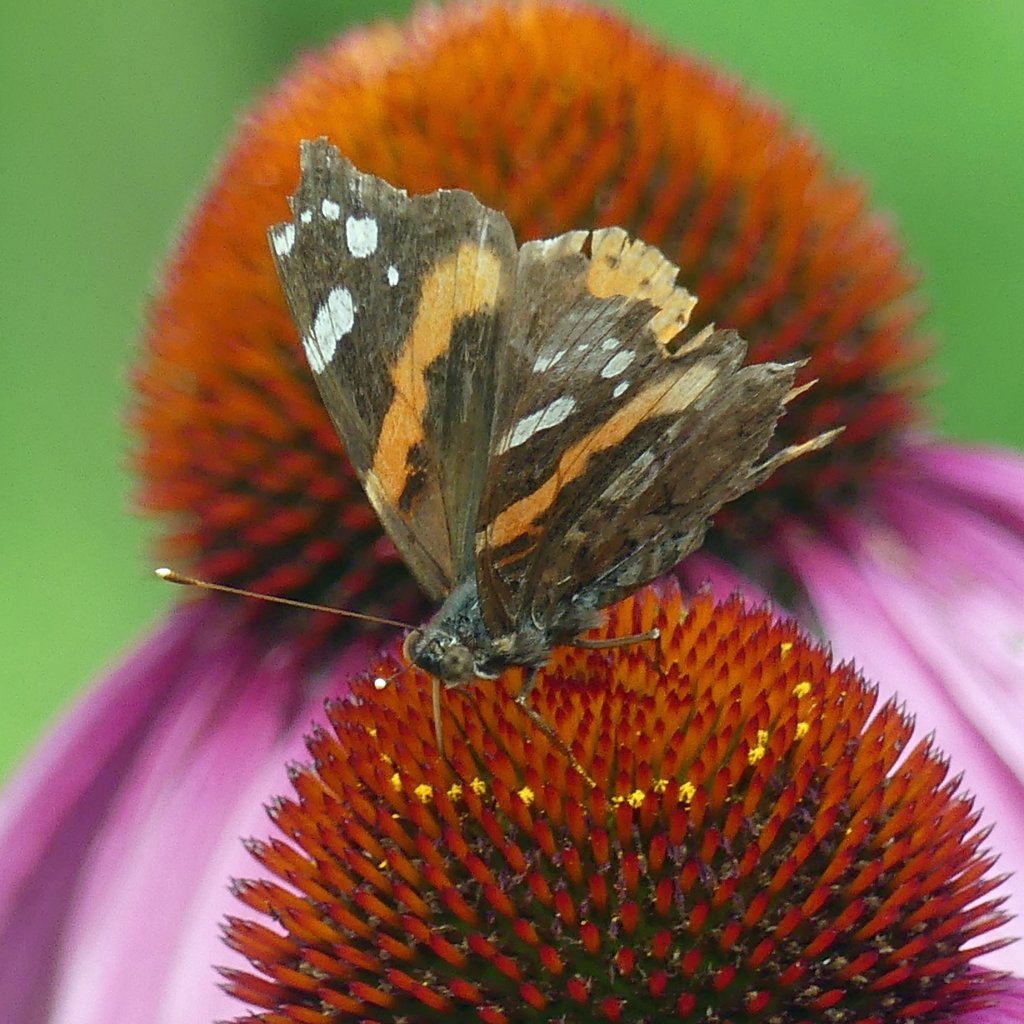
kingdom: Animalia
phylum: Arthropoda
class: Insecta
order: Lepidoptera
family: Nymphalidae
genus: Vanessa
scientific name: Vanessa atalanta
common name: Red Admiral
